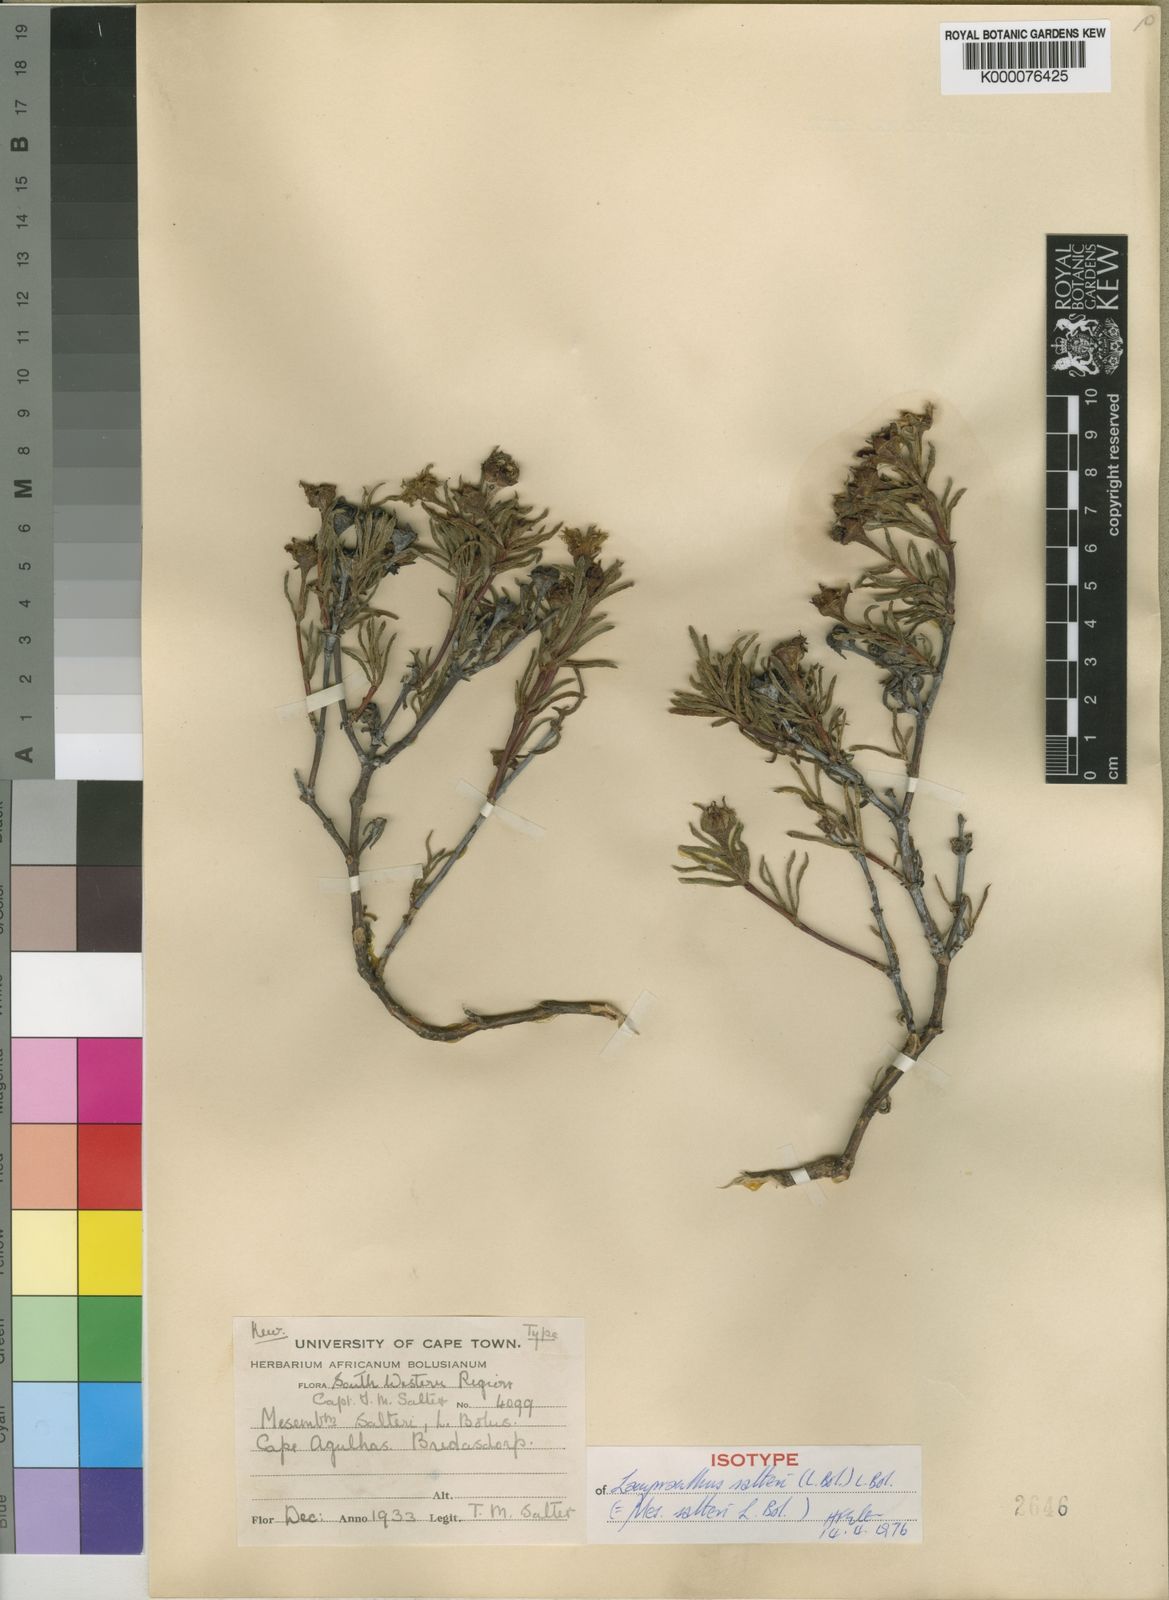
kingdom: Plantae
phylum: Tracheophyta
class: Magnoliopsida
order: Caryophyllales
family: Aizoaceae
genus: Lampranthus
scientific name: Lampranthus salteri
